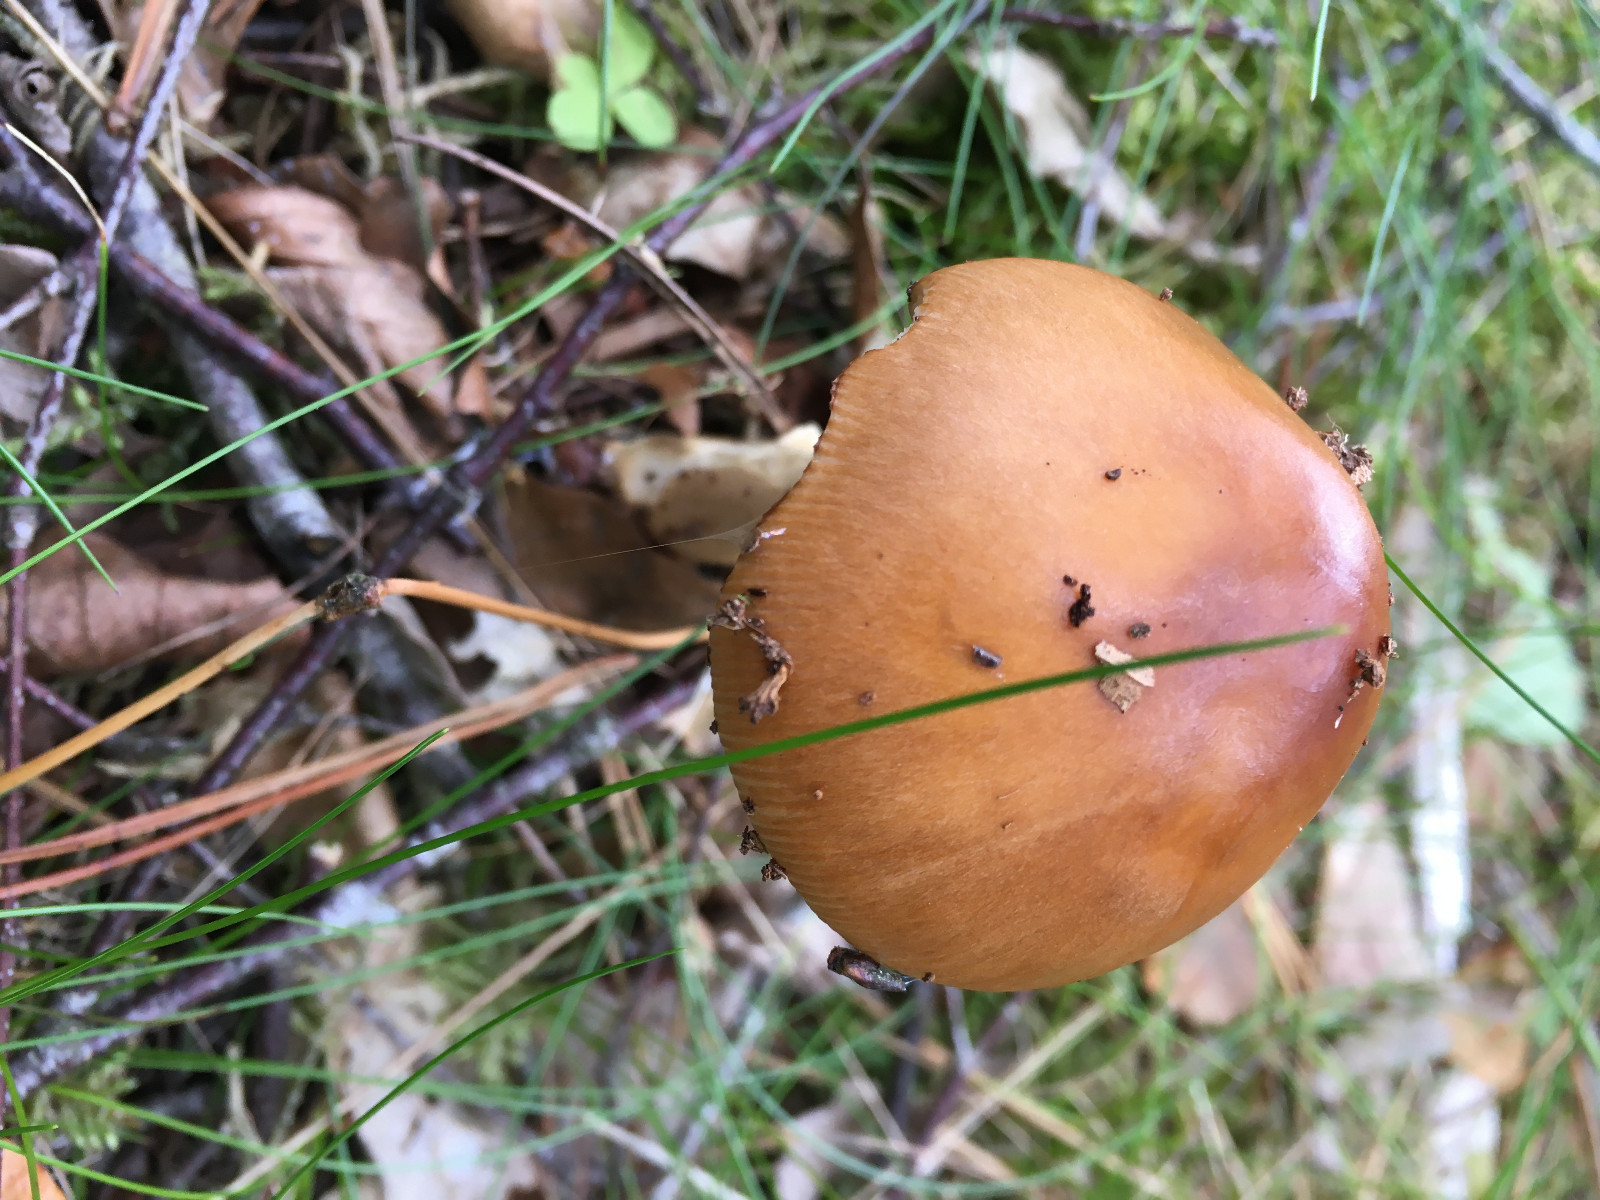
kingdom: Fungi
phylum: Basidiomycota
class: Agaricomycetes
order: Agaricales
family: Amanitaceae
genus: Amanita
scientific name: Amanita fulva
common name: brun kam-fluesvamp
